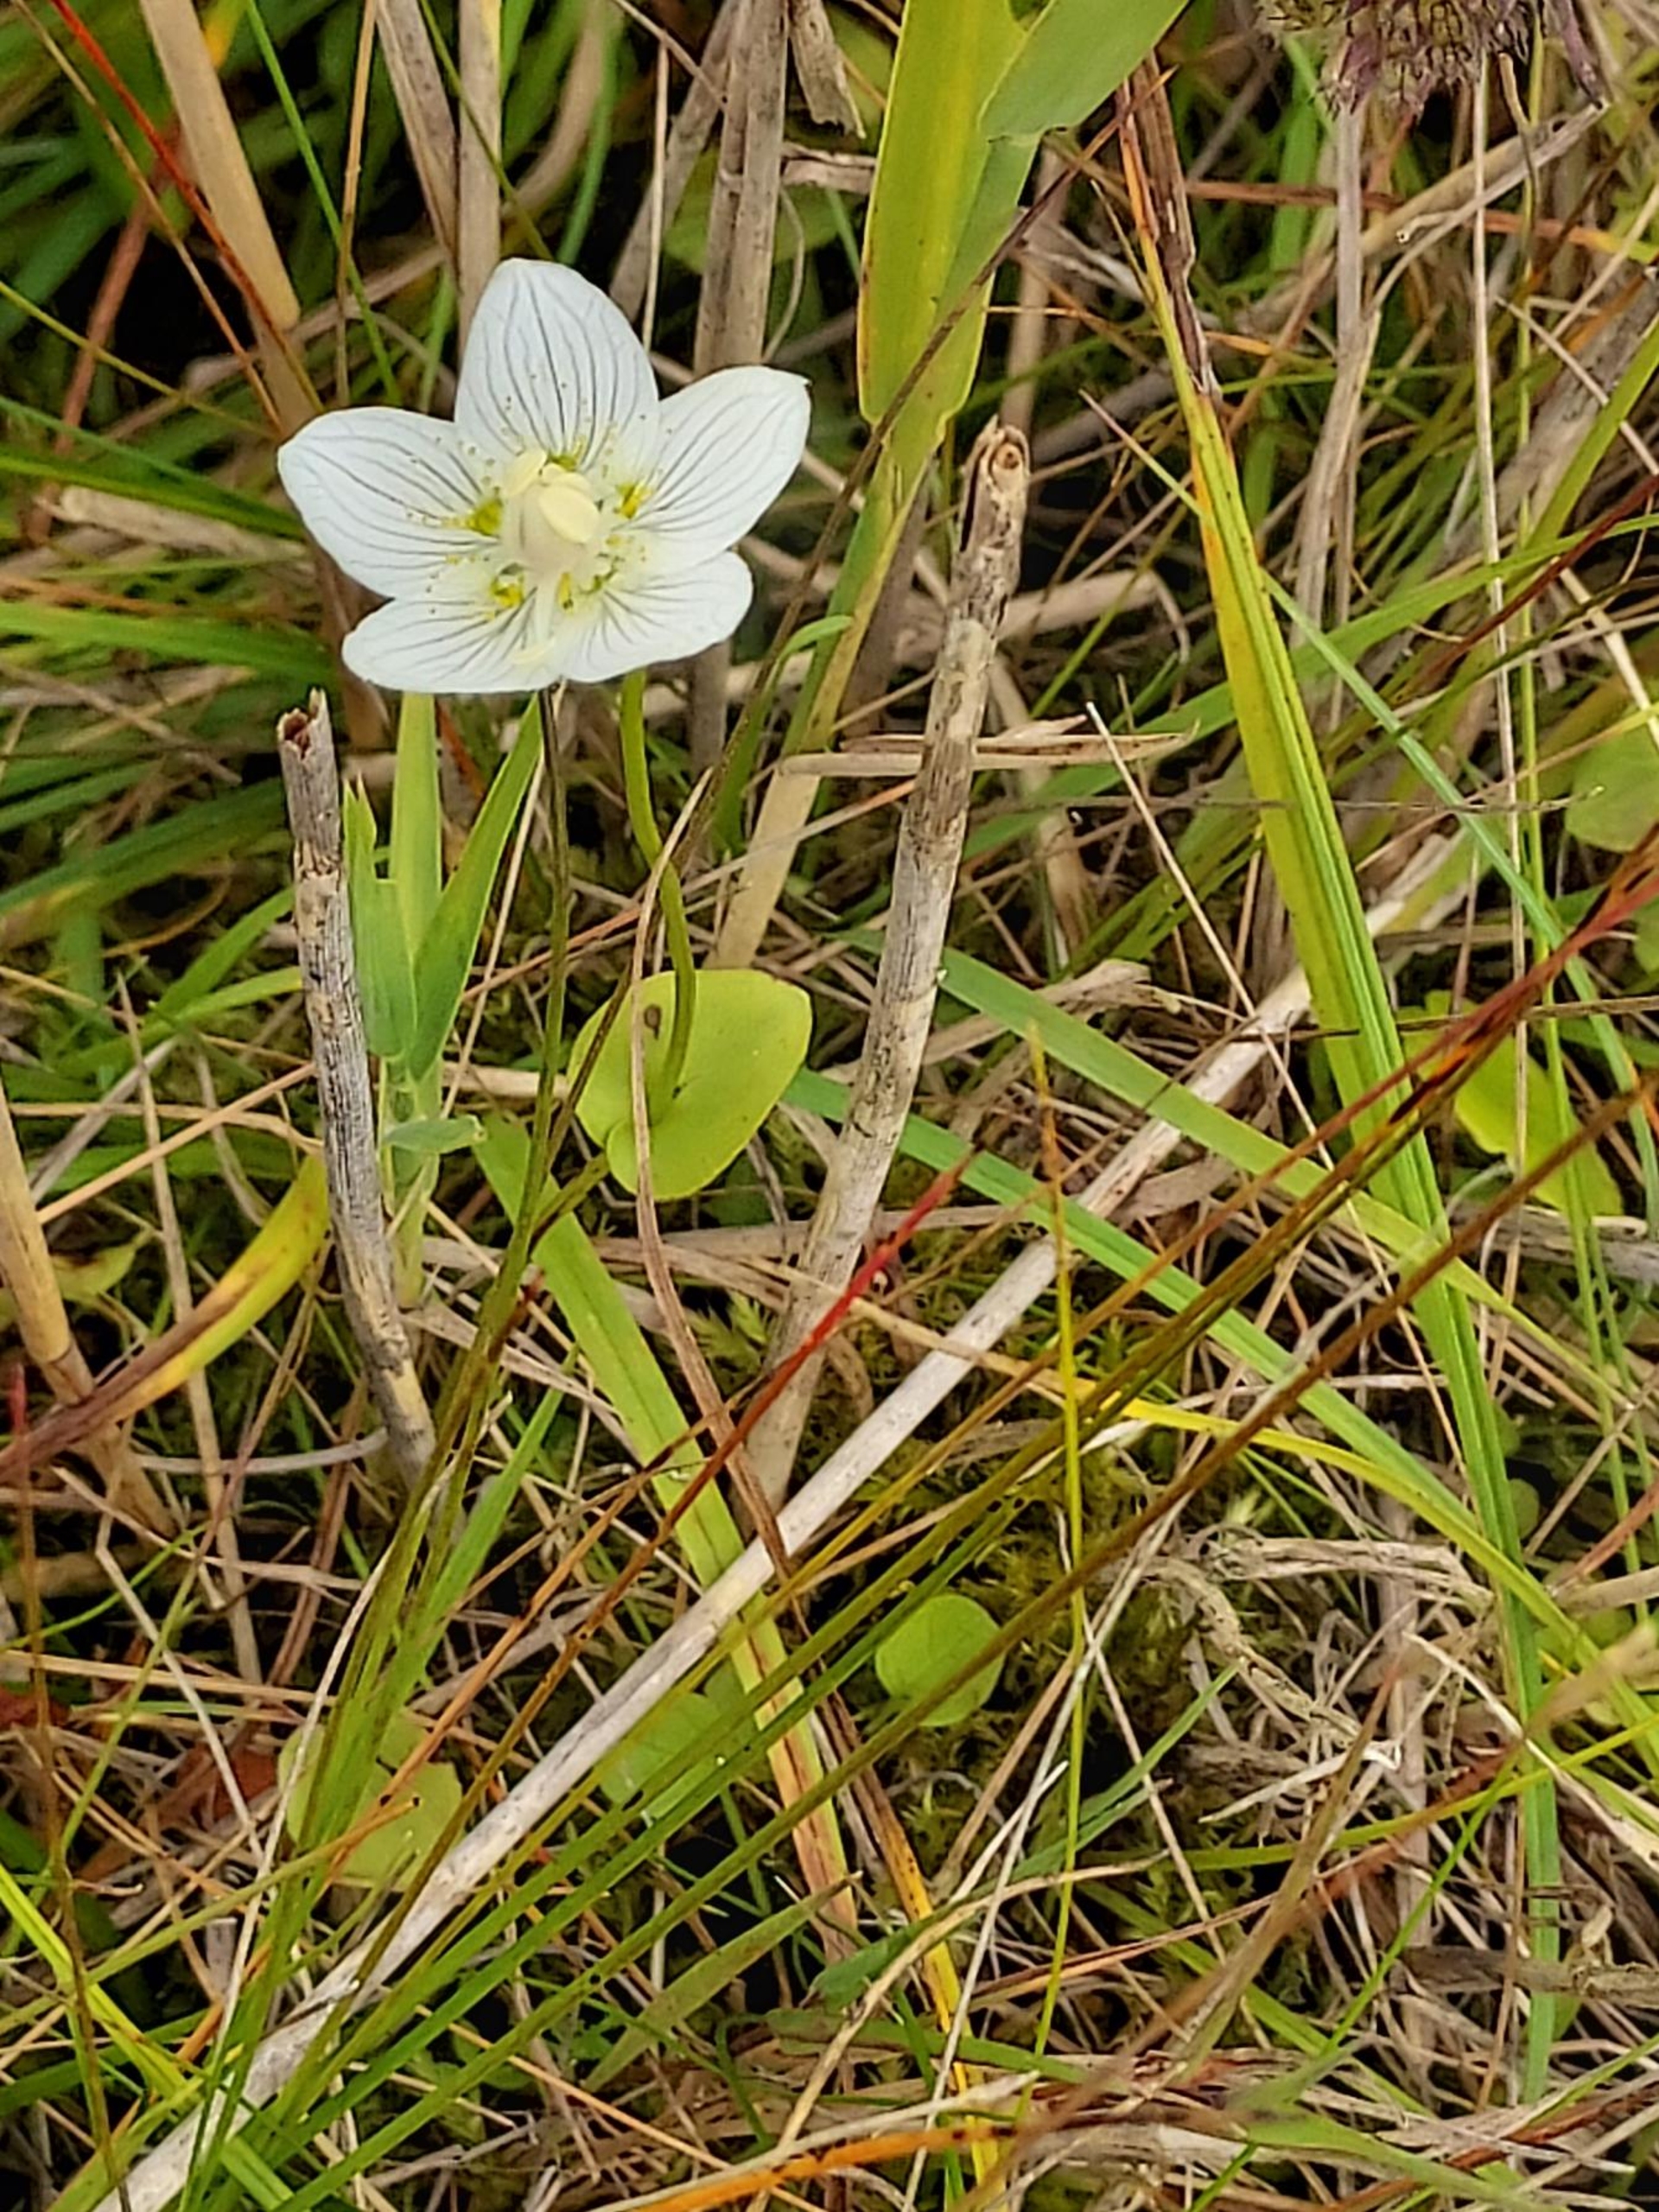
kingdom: Plantae
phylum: Tracheophyta
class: Magnoliopsida
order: Celastrales
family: Parnassiaceae
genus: Parnassia
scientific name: Parnassia palustris
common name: Leverurt
